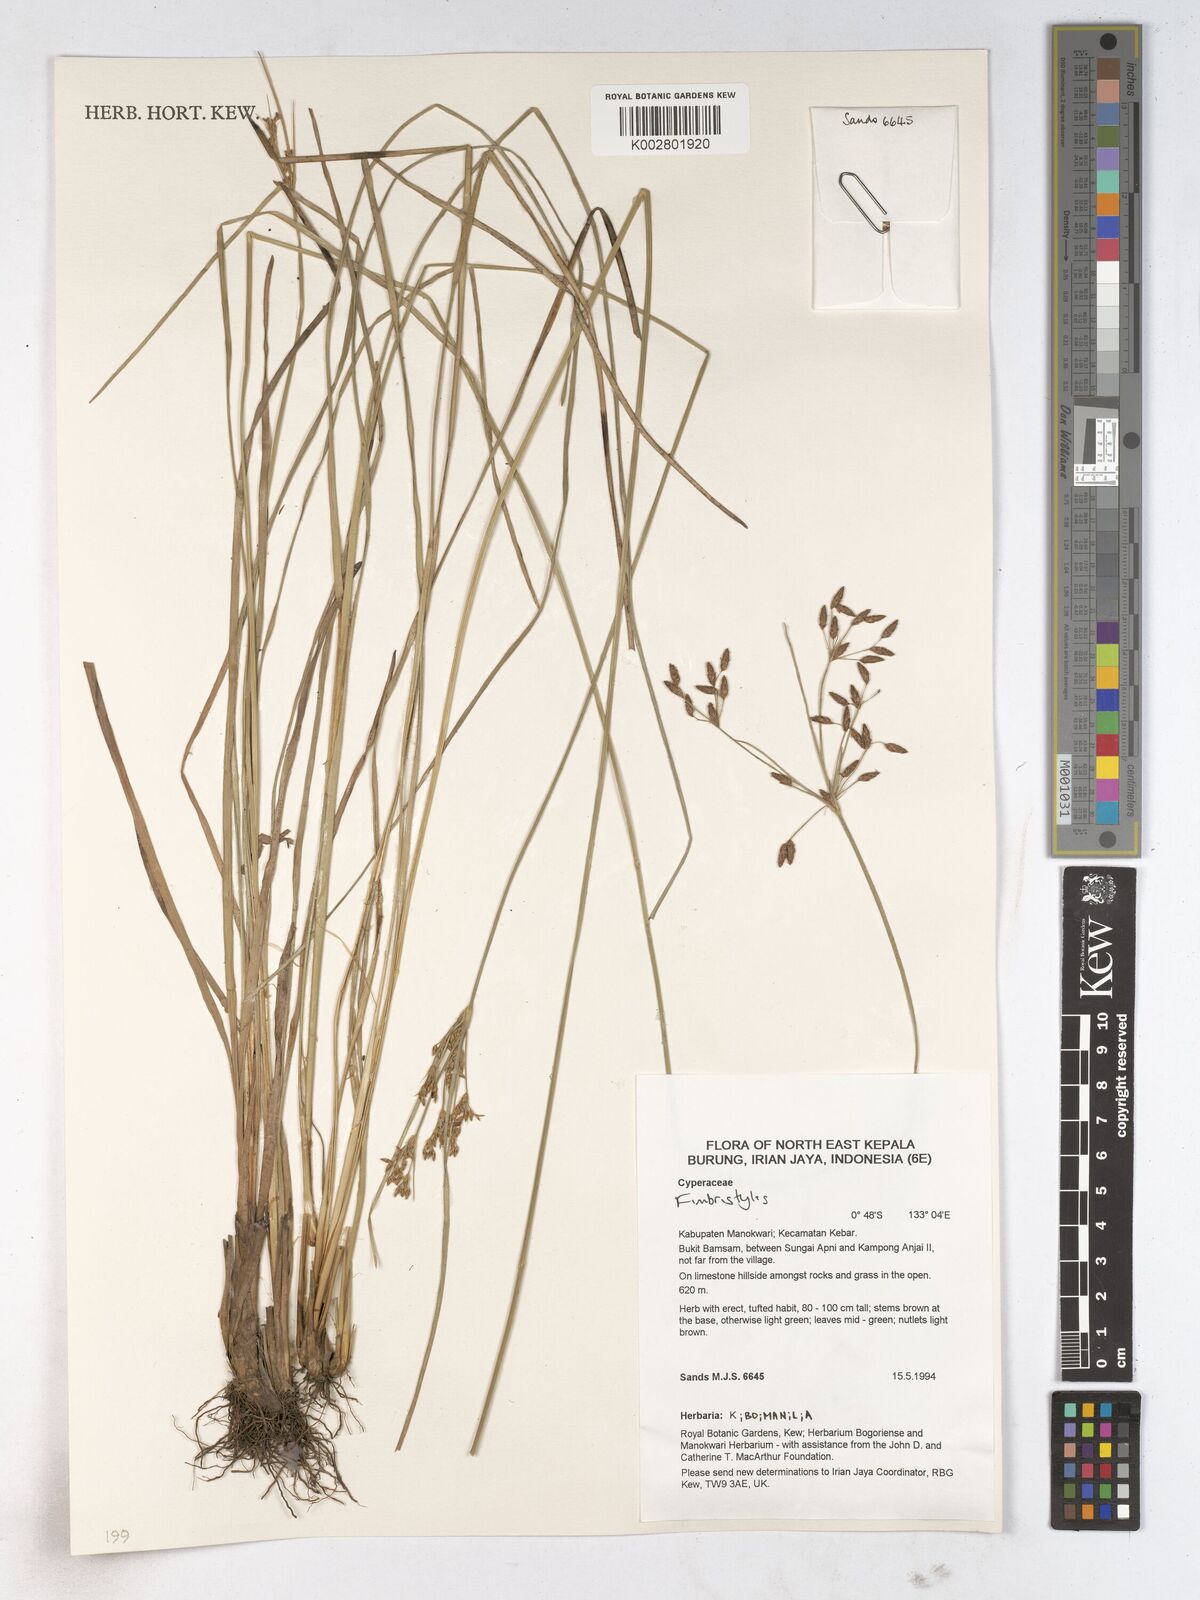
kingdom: Plantae
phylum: Tracheophyta
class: Liliopsida
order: Poales
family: Cyperaceae
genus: Fimbristylis
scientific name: Fimbristylis
